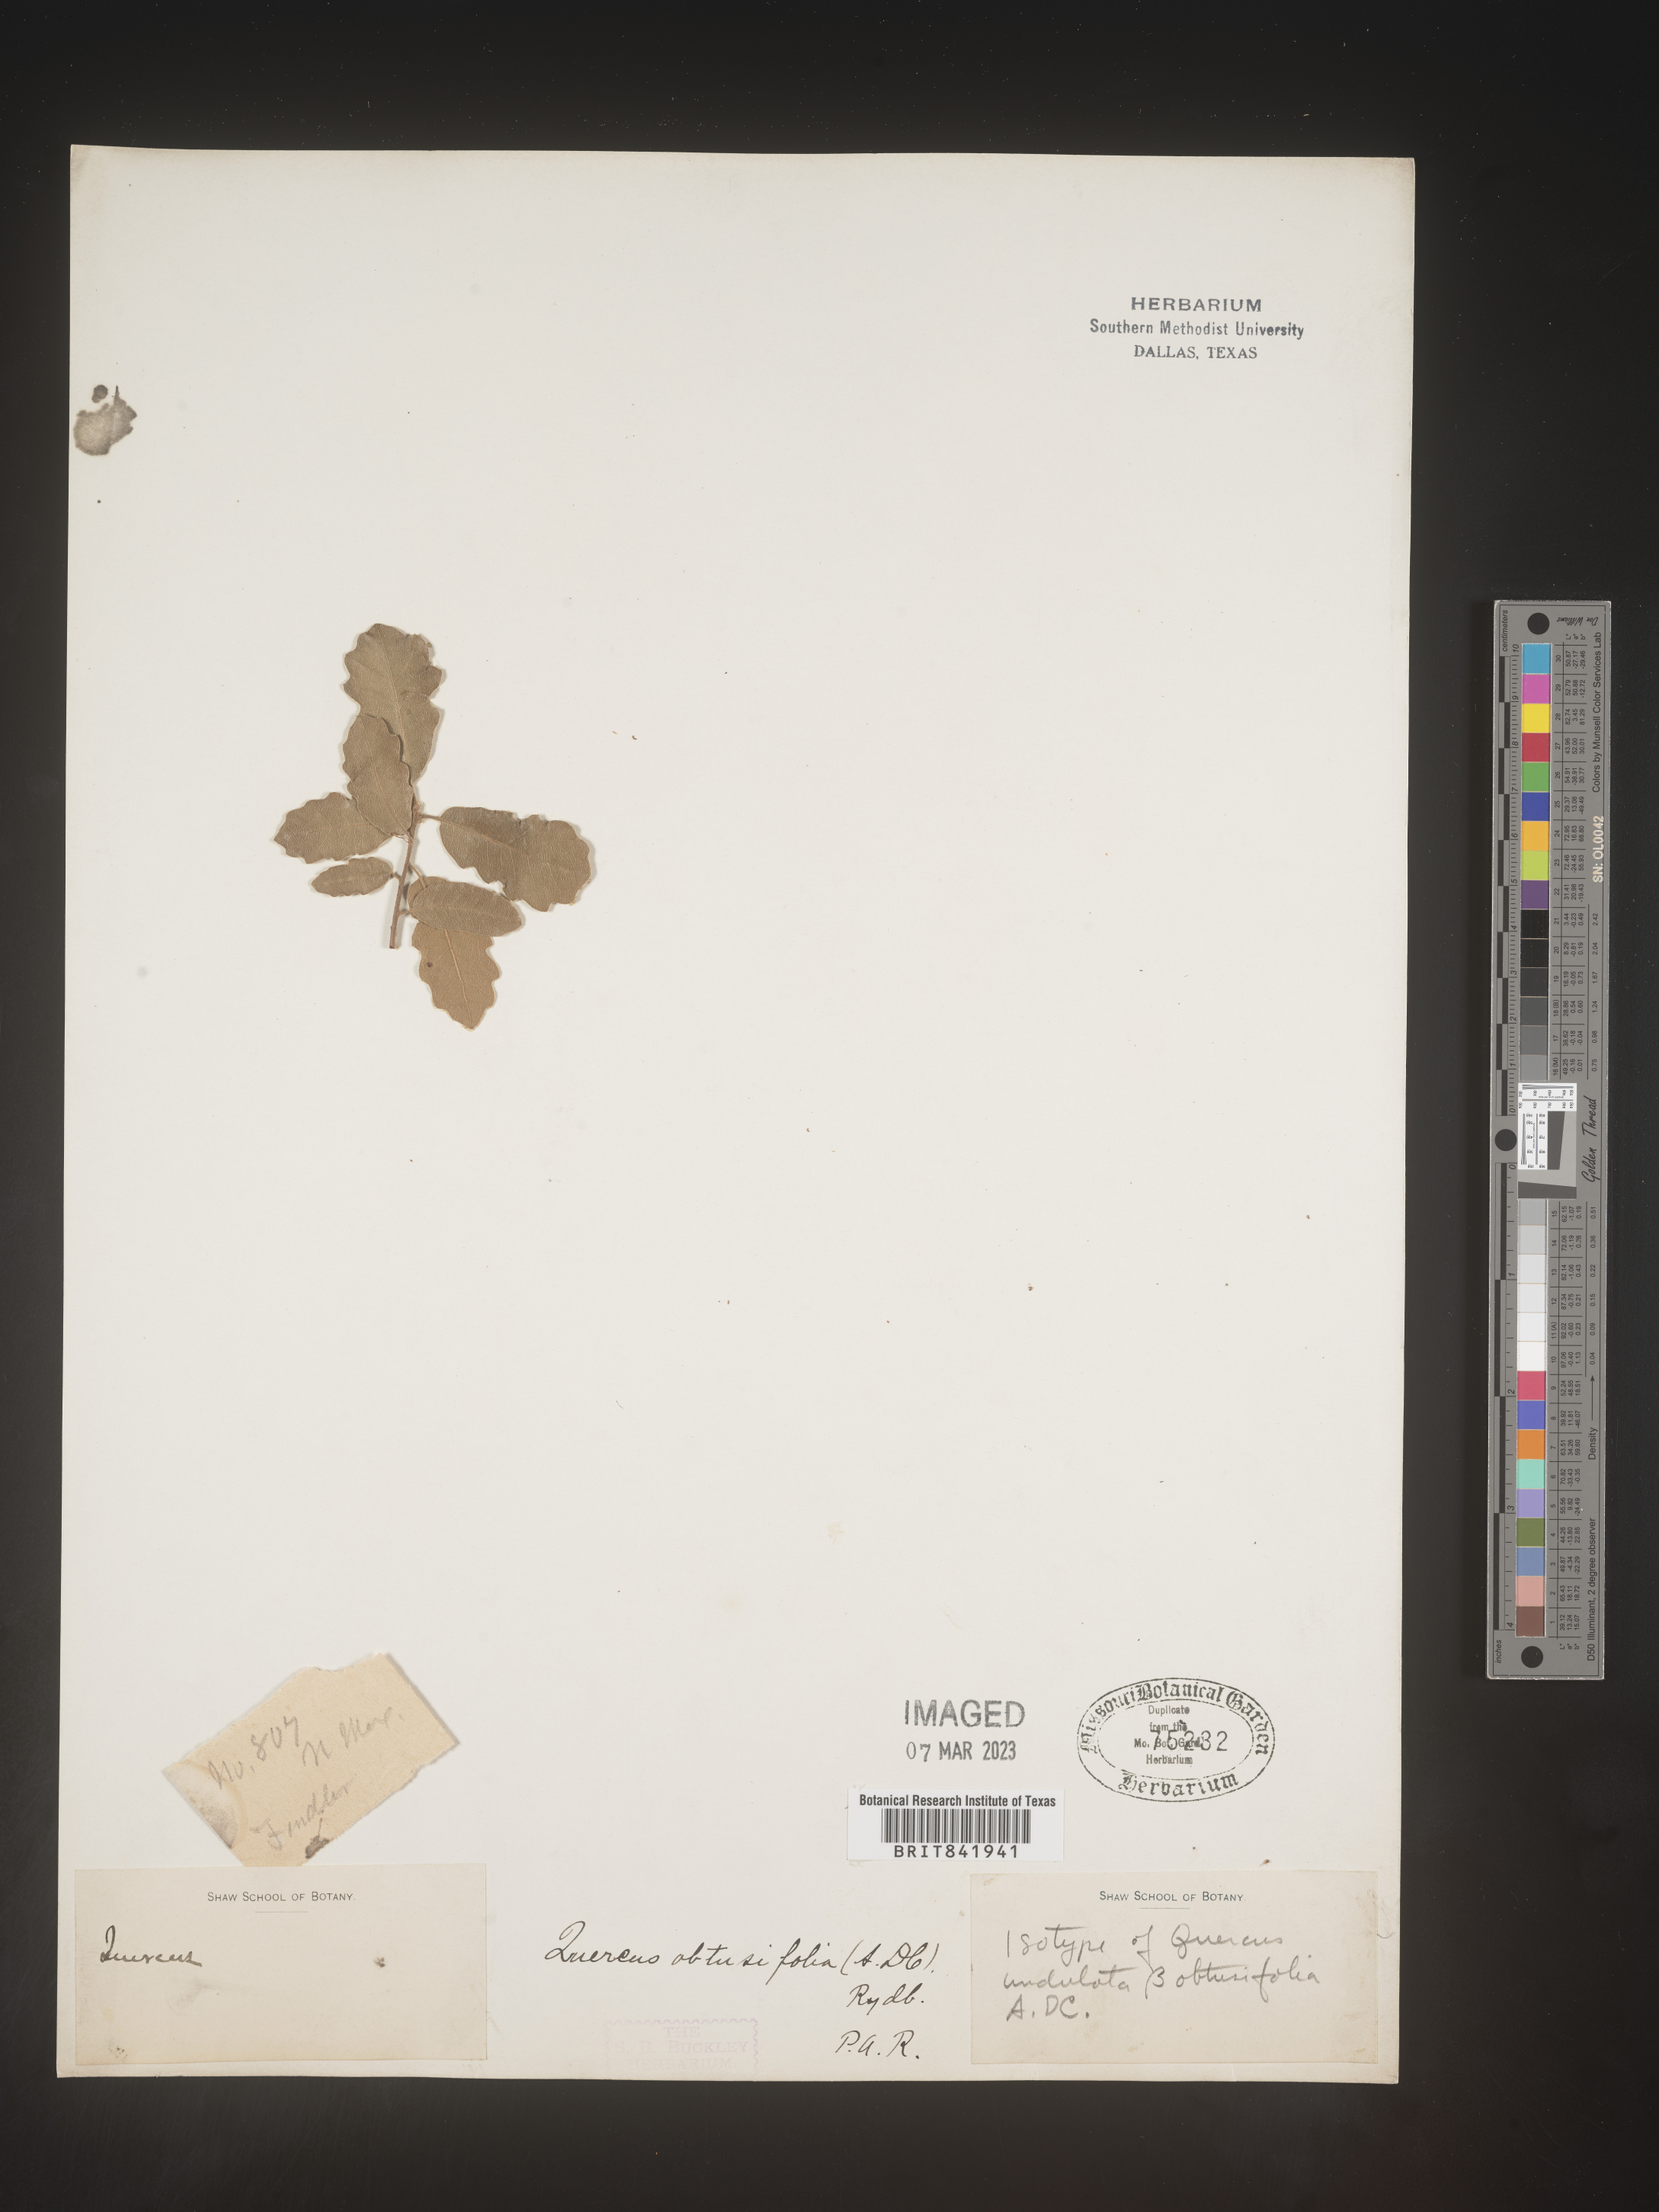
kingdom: Plantae
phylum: Tracheophyta
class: Magnoliopsida
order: Fagales
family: Fagaceae
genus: Quercus
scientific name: Quercus gambelii
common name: Gambel oak
